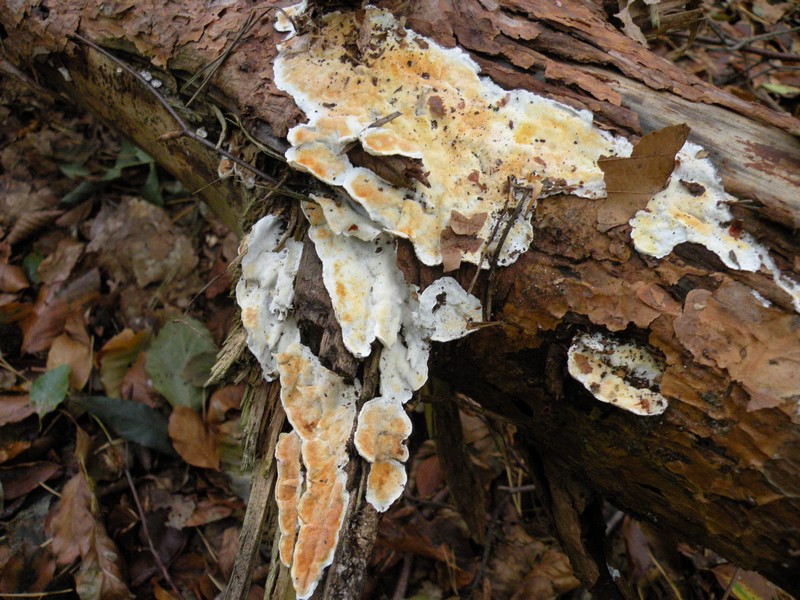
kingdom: Fungi
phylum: Basidiomycota
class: Agaricomycetes
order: Polyporales
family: Incrustoporiaceae
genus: Skeletocutis
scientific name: Skeletocutis amorpha
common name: orange krystalporesvamp
